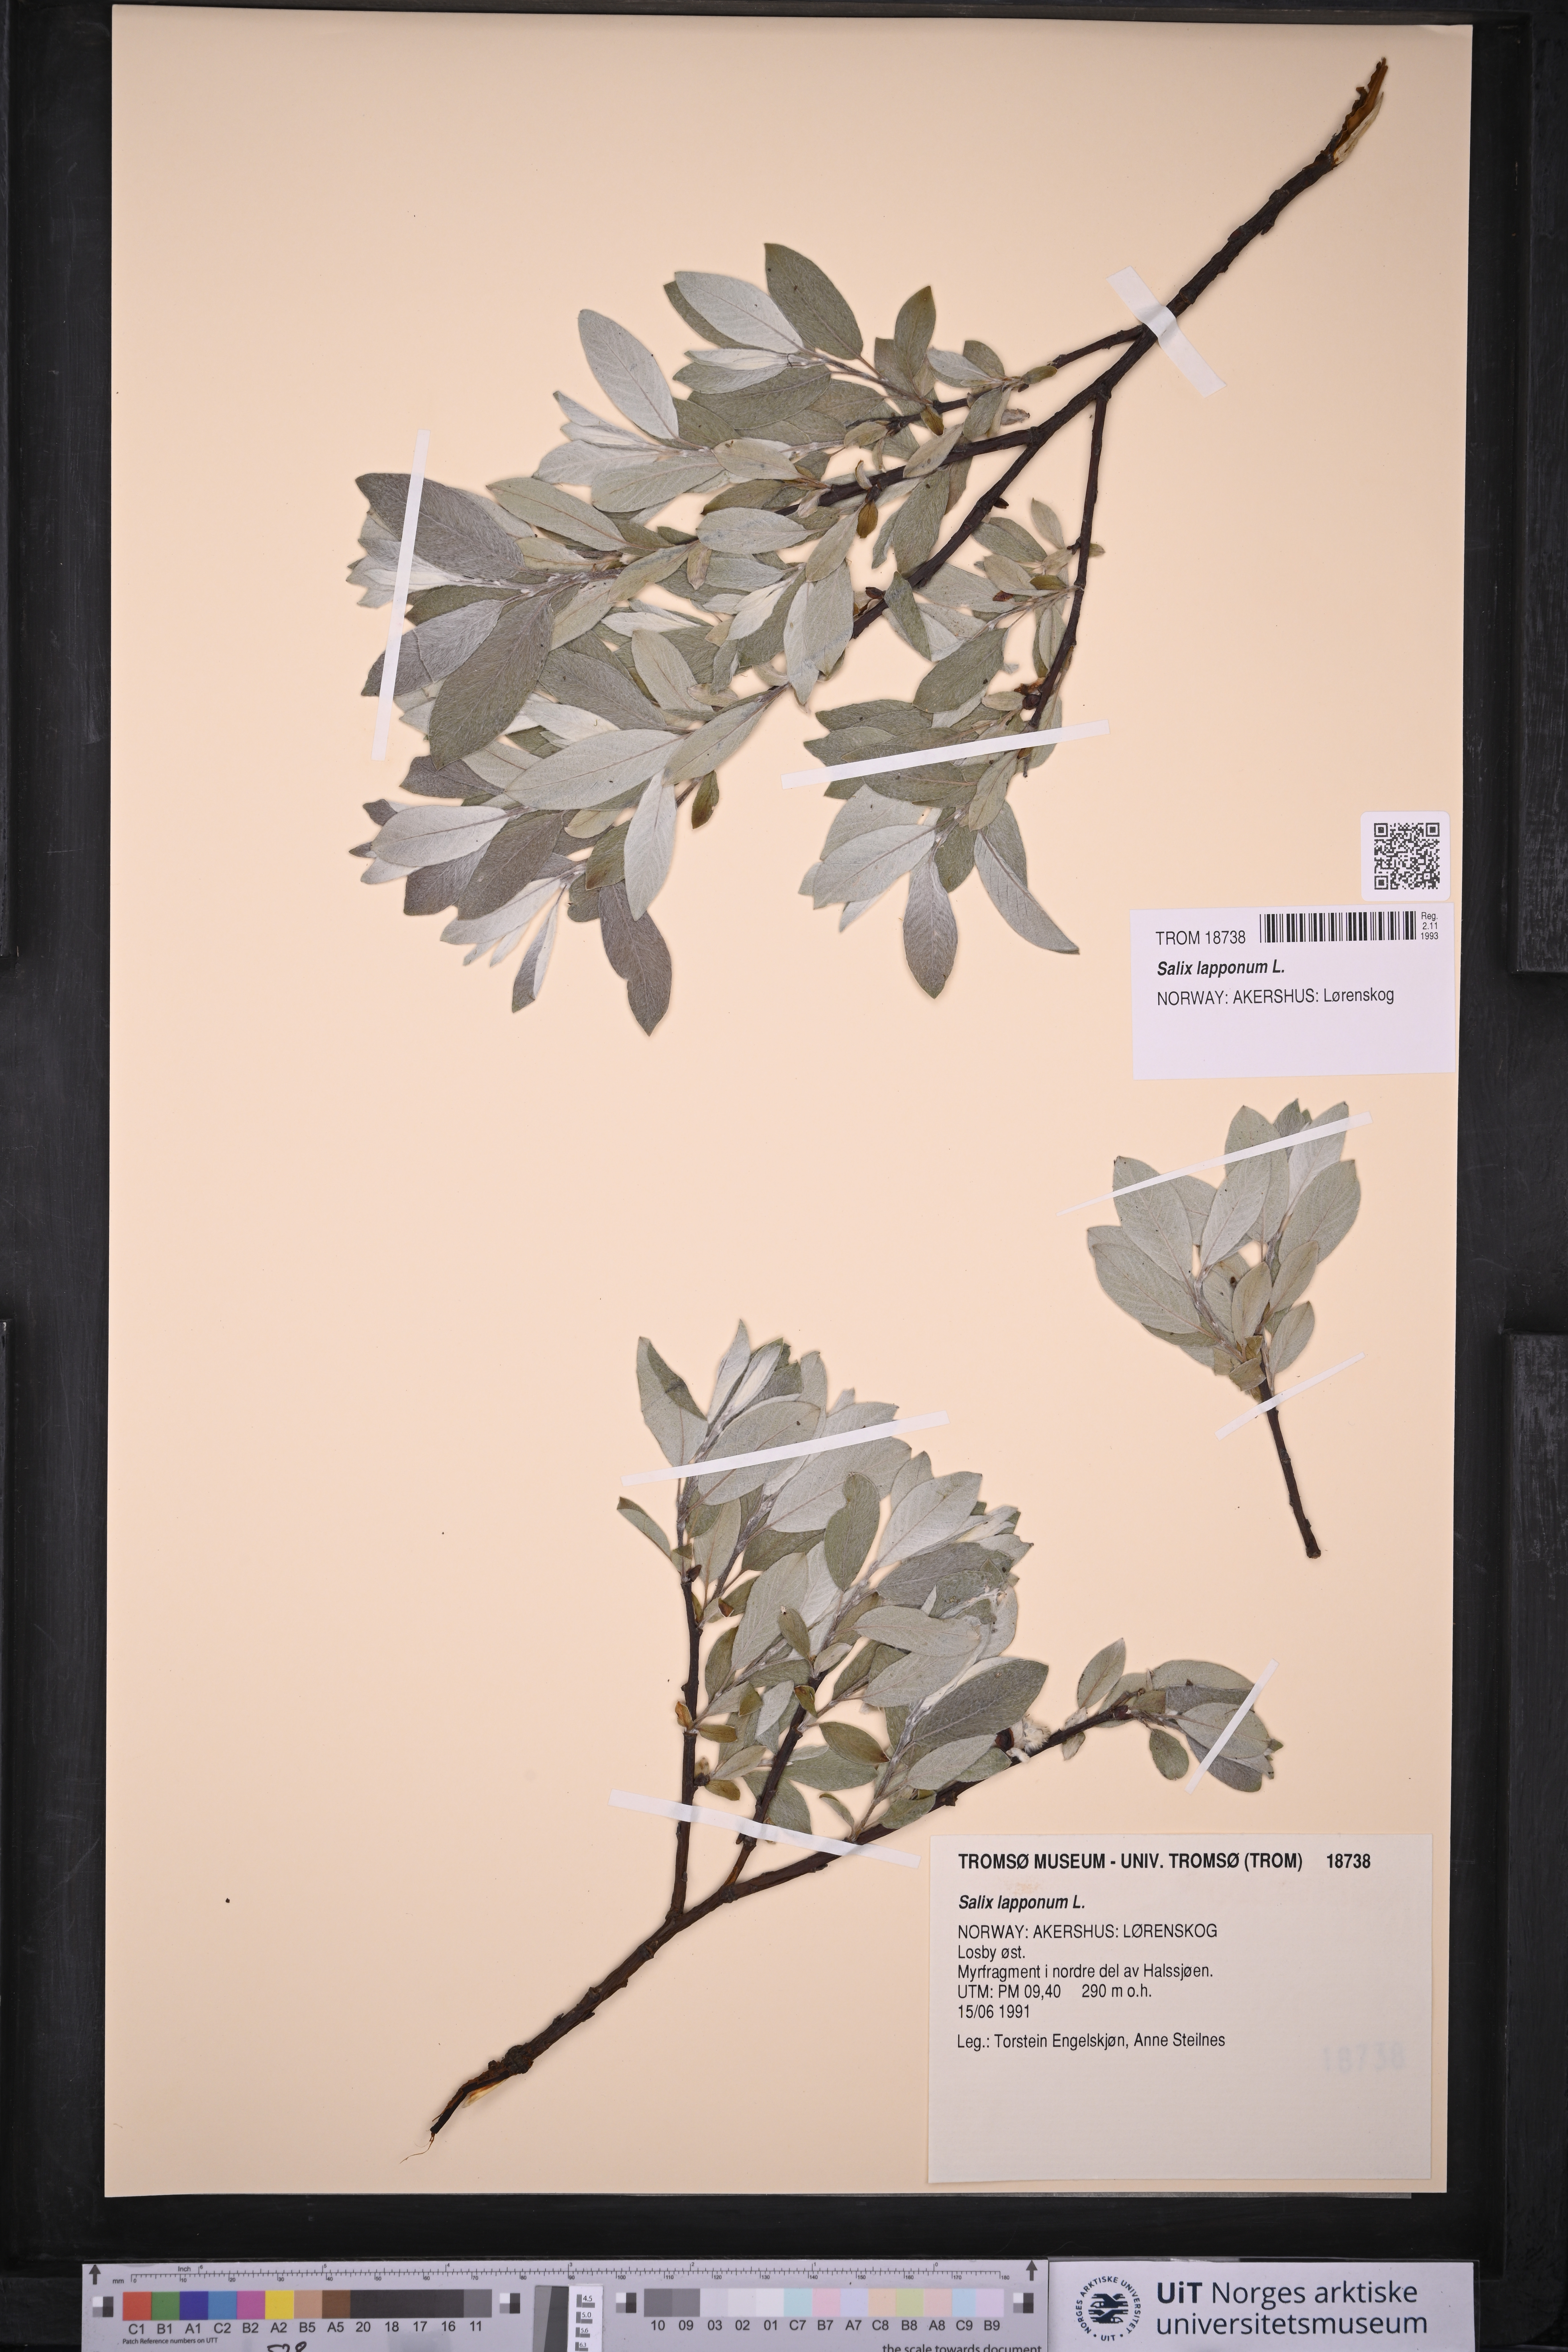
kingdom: Plantae
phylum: Tracheophyta
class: Magnoliopsida
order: Malpighiales
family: Salicaceae
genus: Salix
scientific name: Salix lapponum
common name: Downy willow
